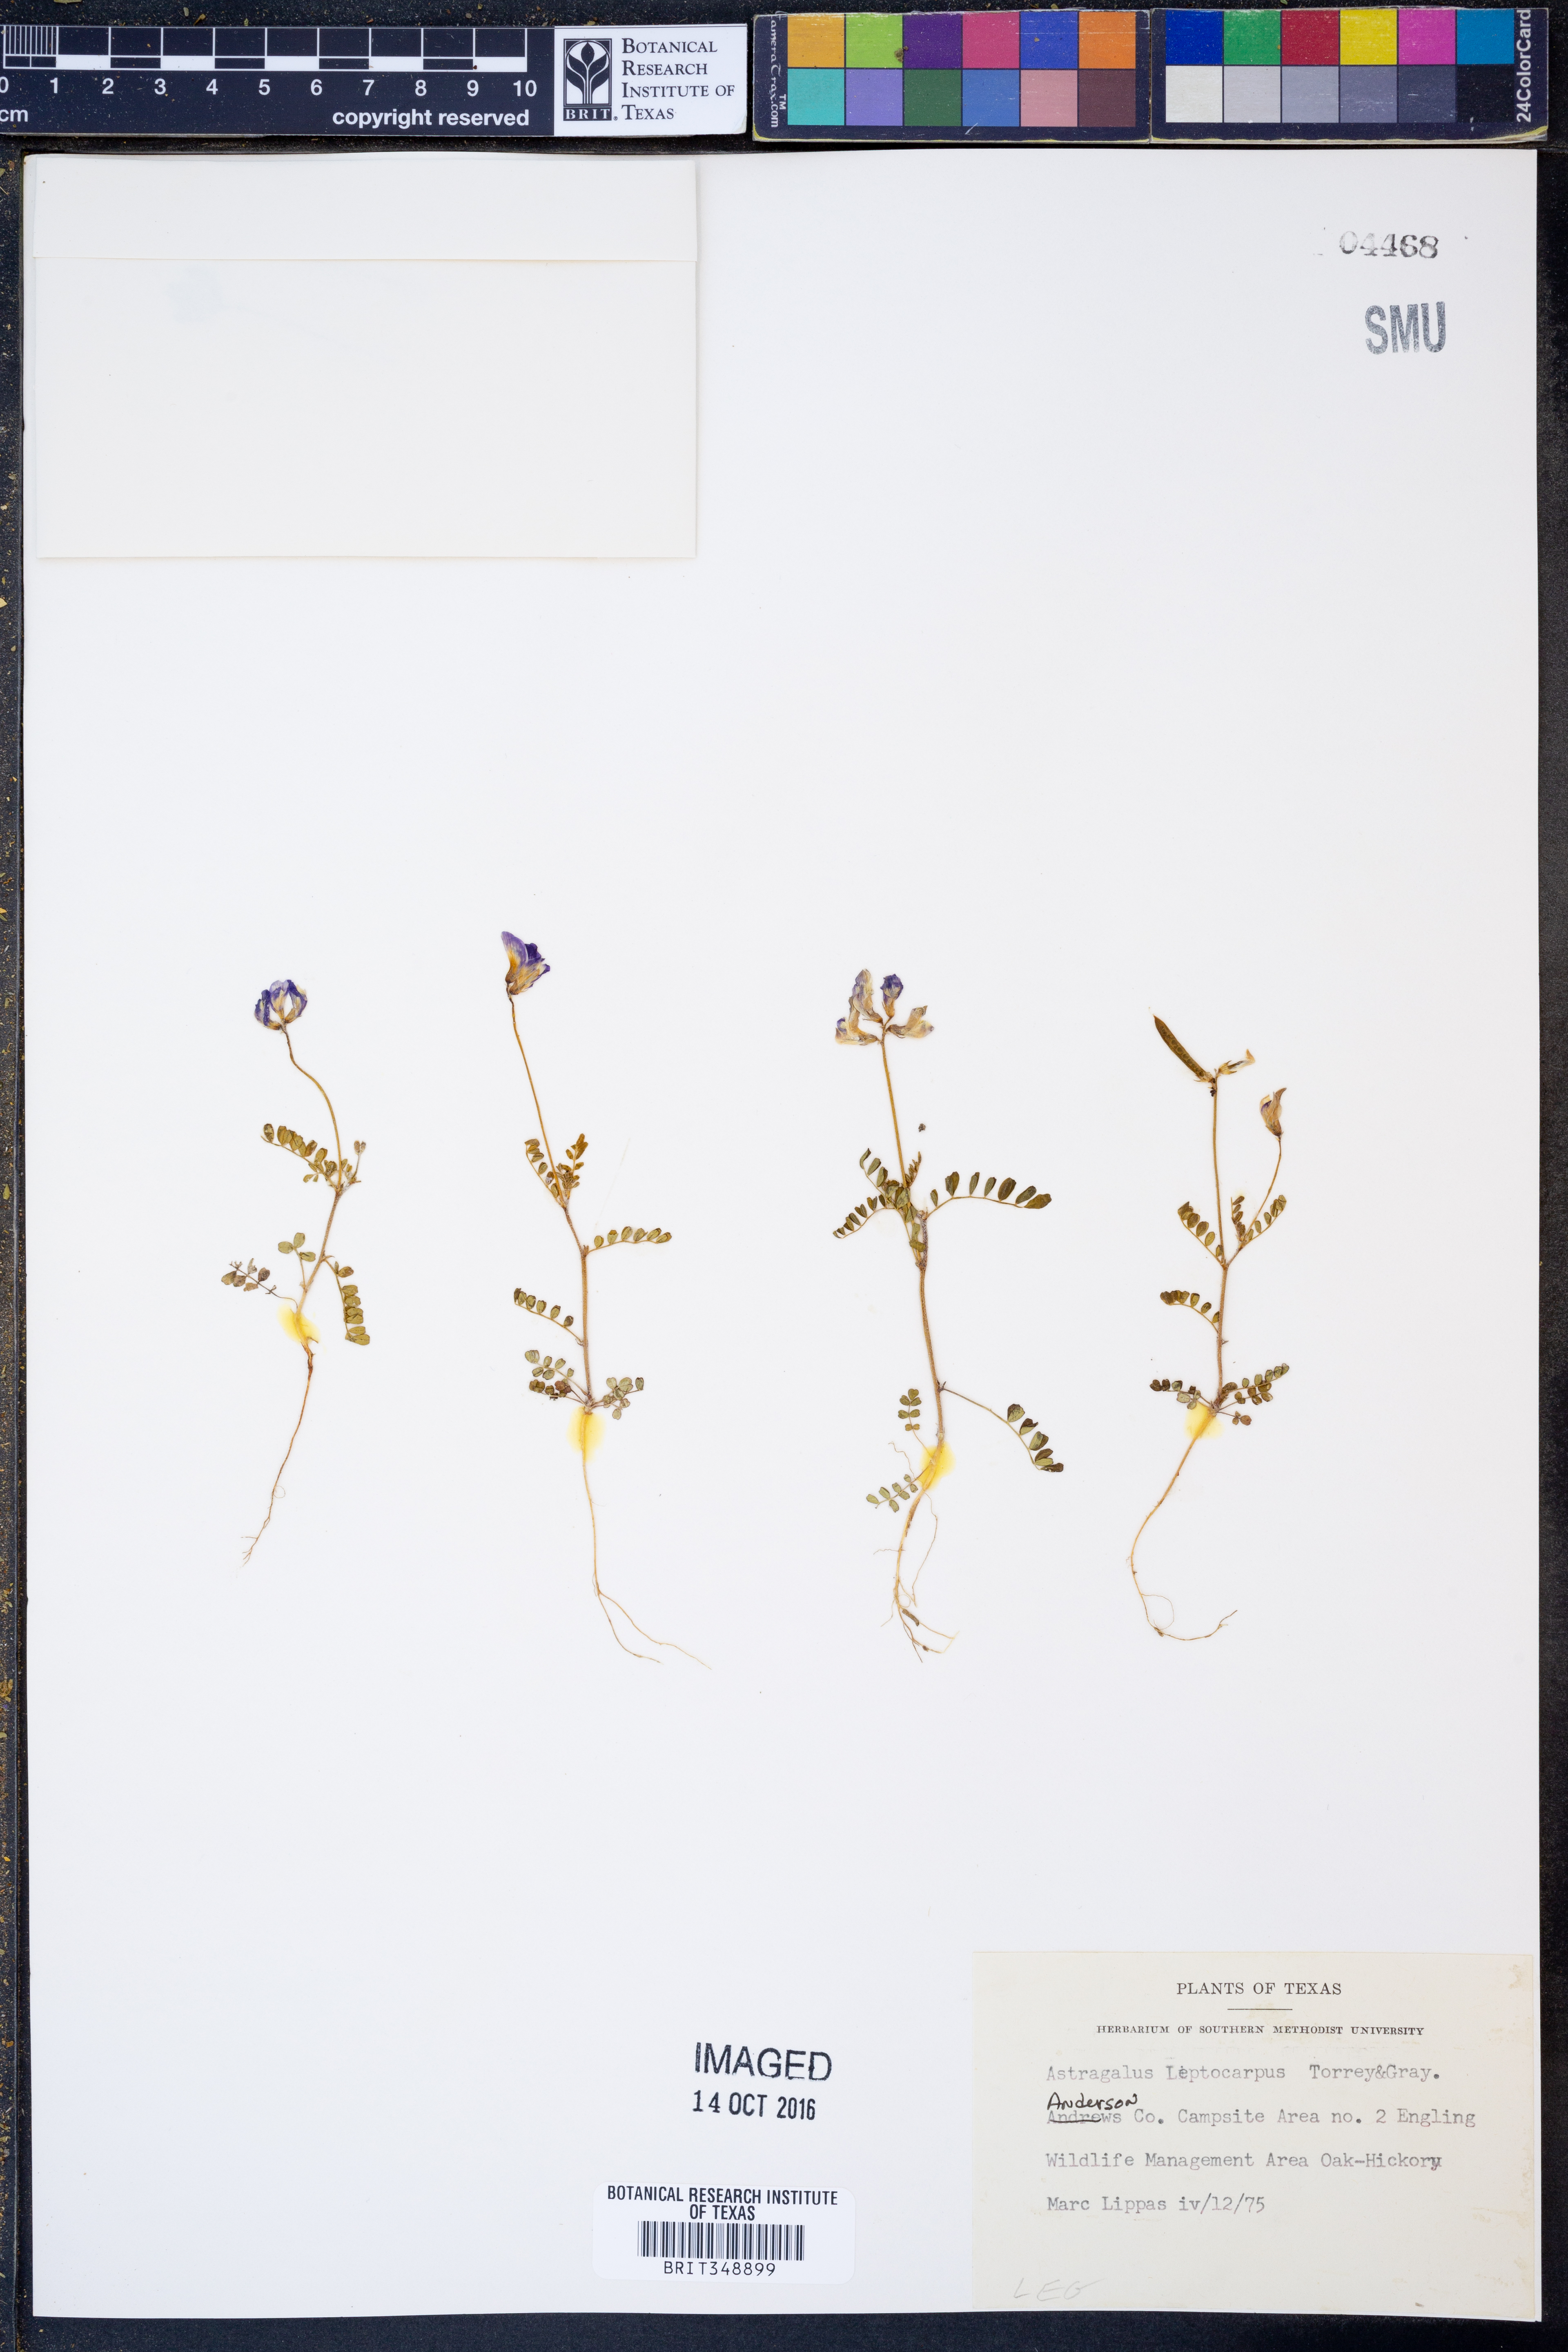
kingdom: Plantae
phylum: Tracheophyta
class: Magnoliopsida
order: Fabales
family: Fabaceae
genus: Astragalus
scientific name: Astragalus leptocarpus
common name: Bodkin milk-vetch
